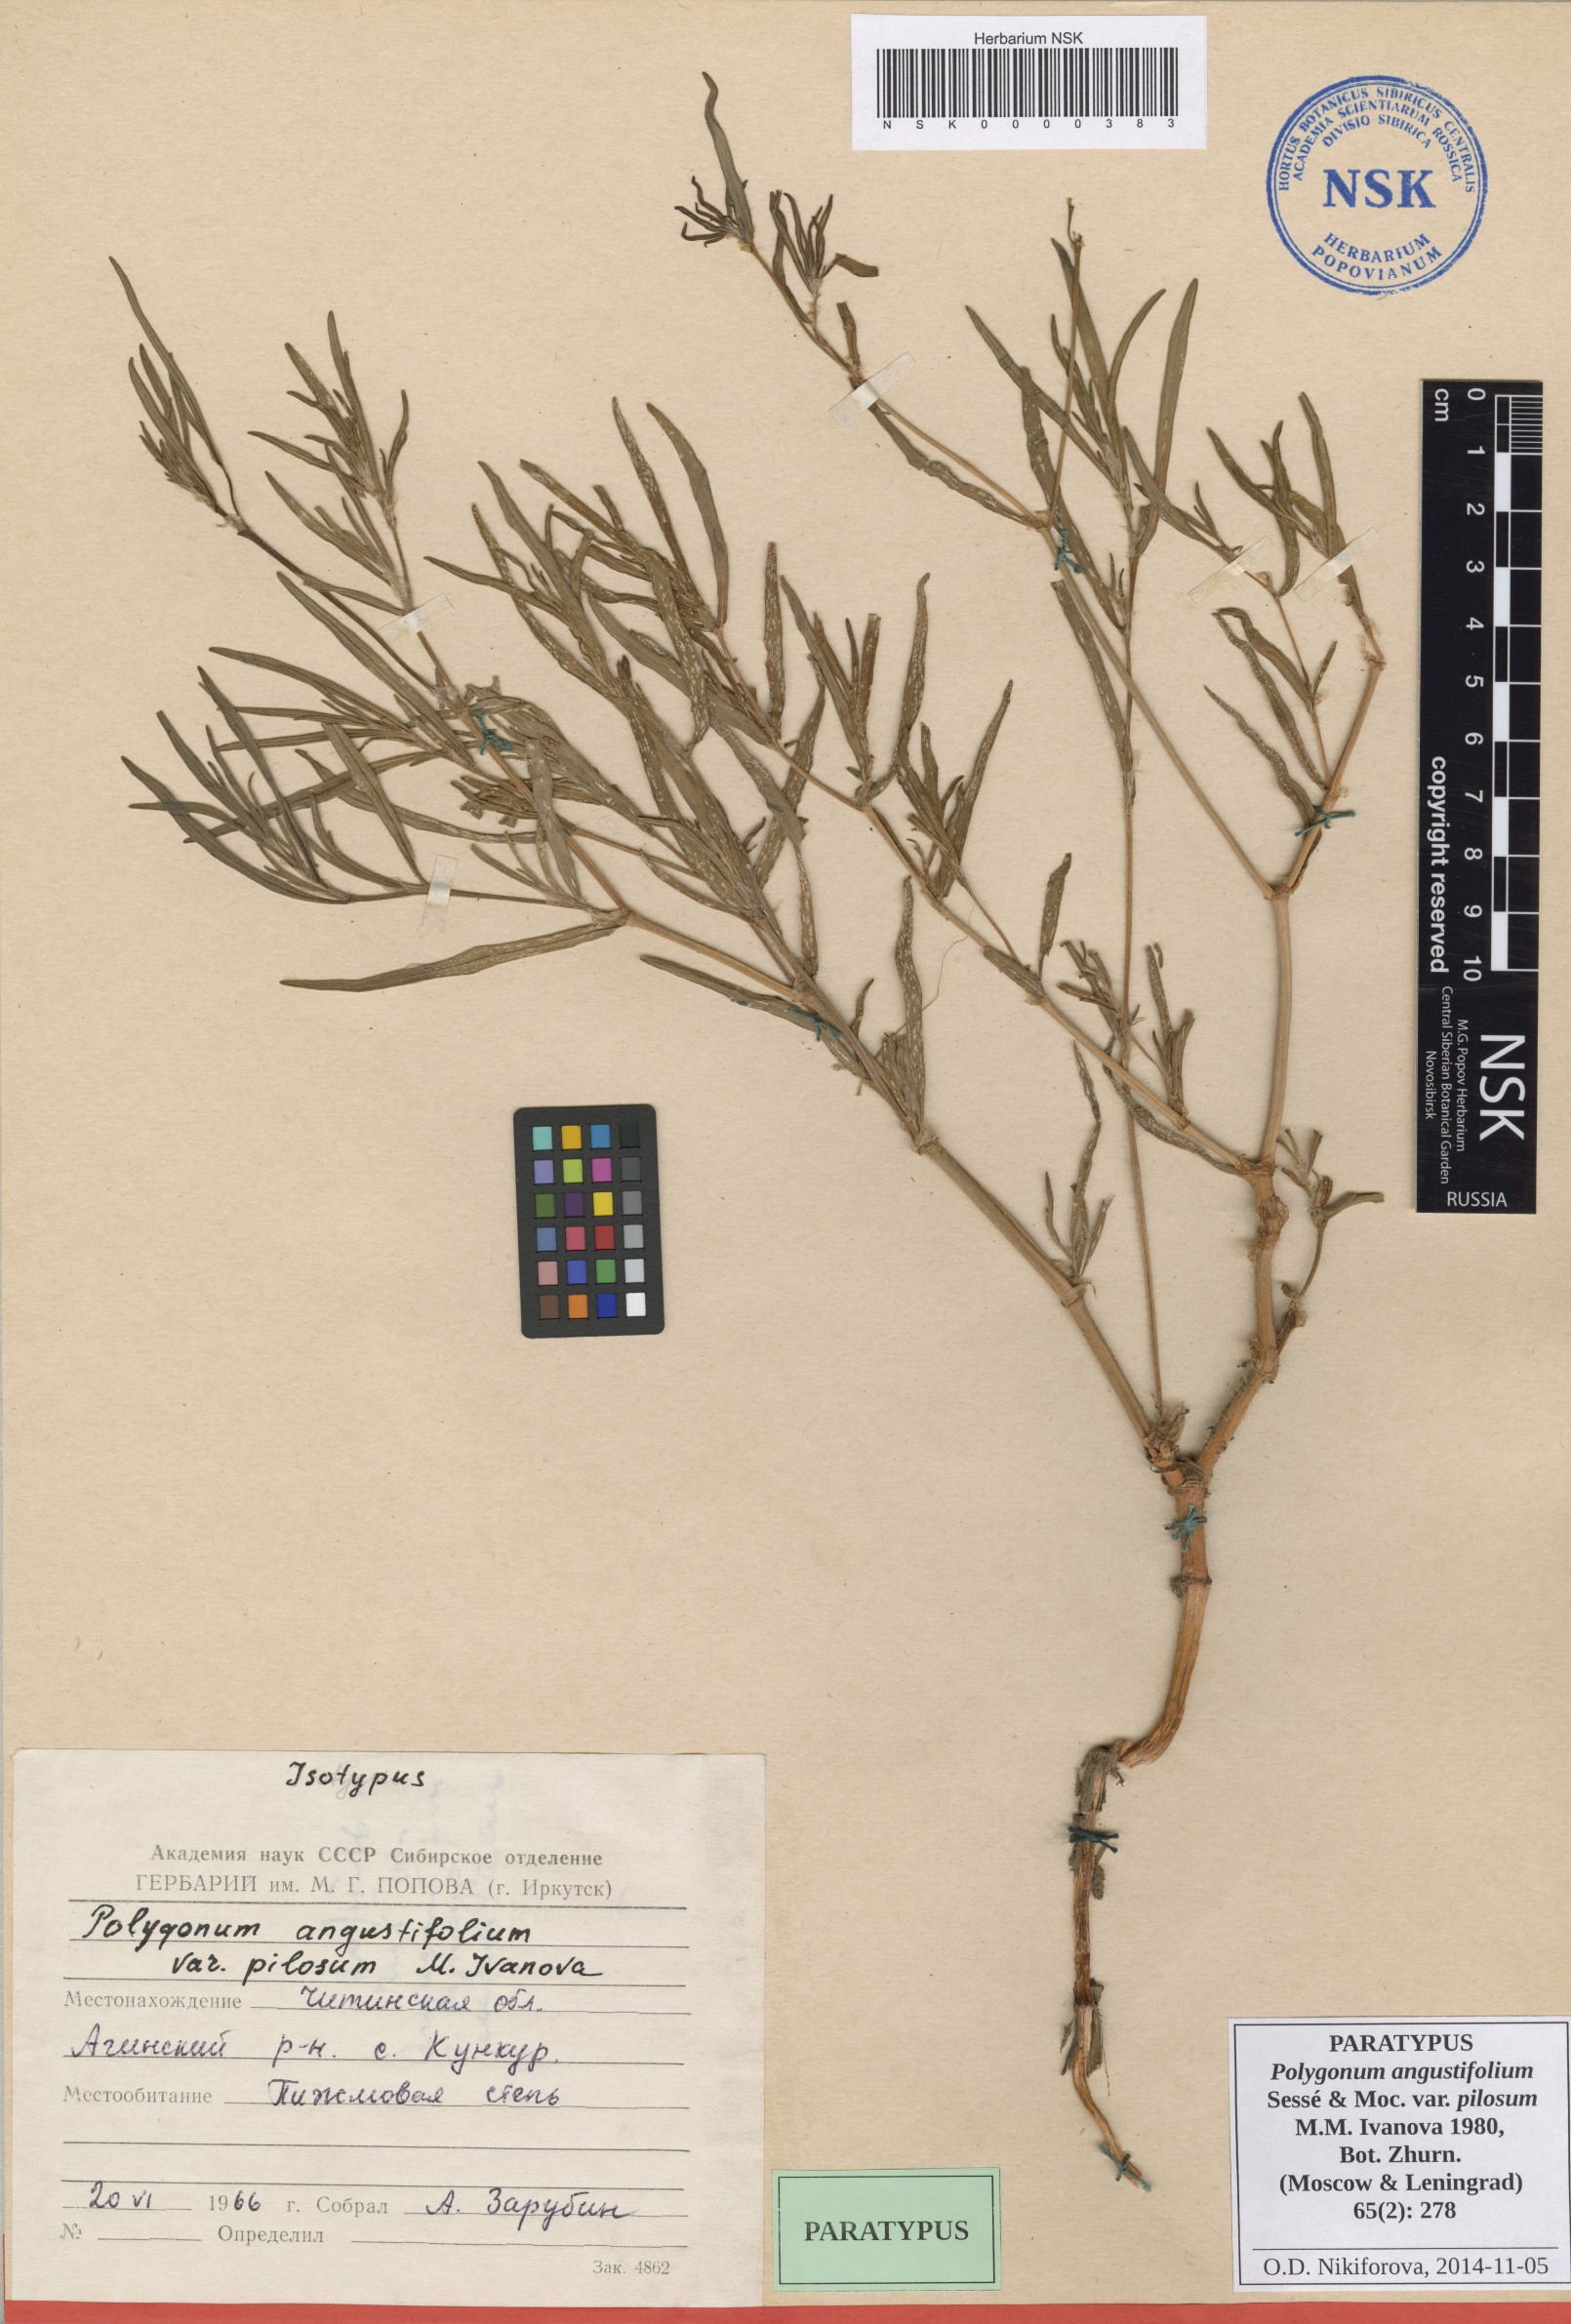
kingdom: Plantae
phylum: Tracheophyta
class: Magnoliopsida
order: Caryophyllales
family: Polygonaceae
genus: Persicaria
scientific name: Persicaria angustifolia
